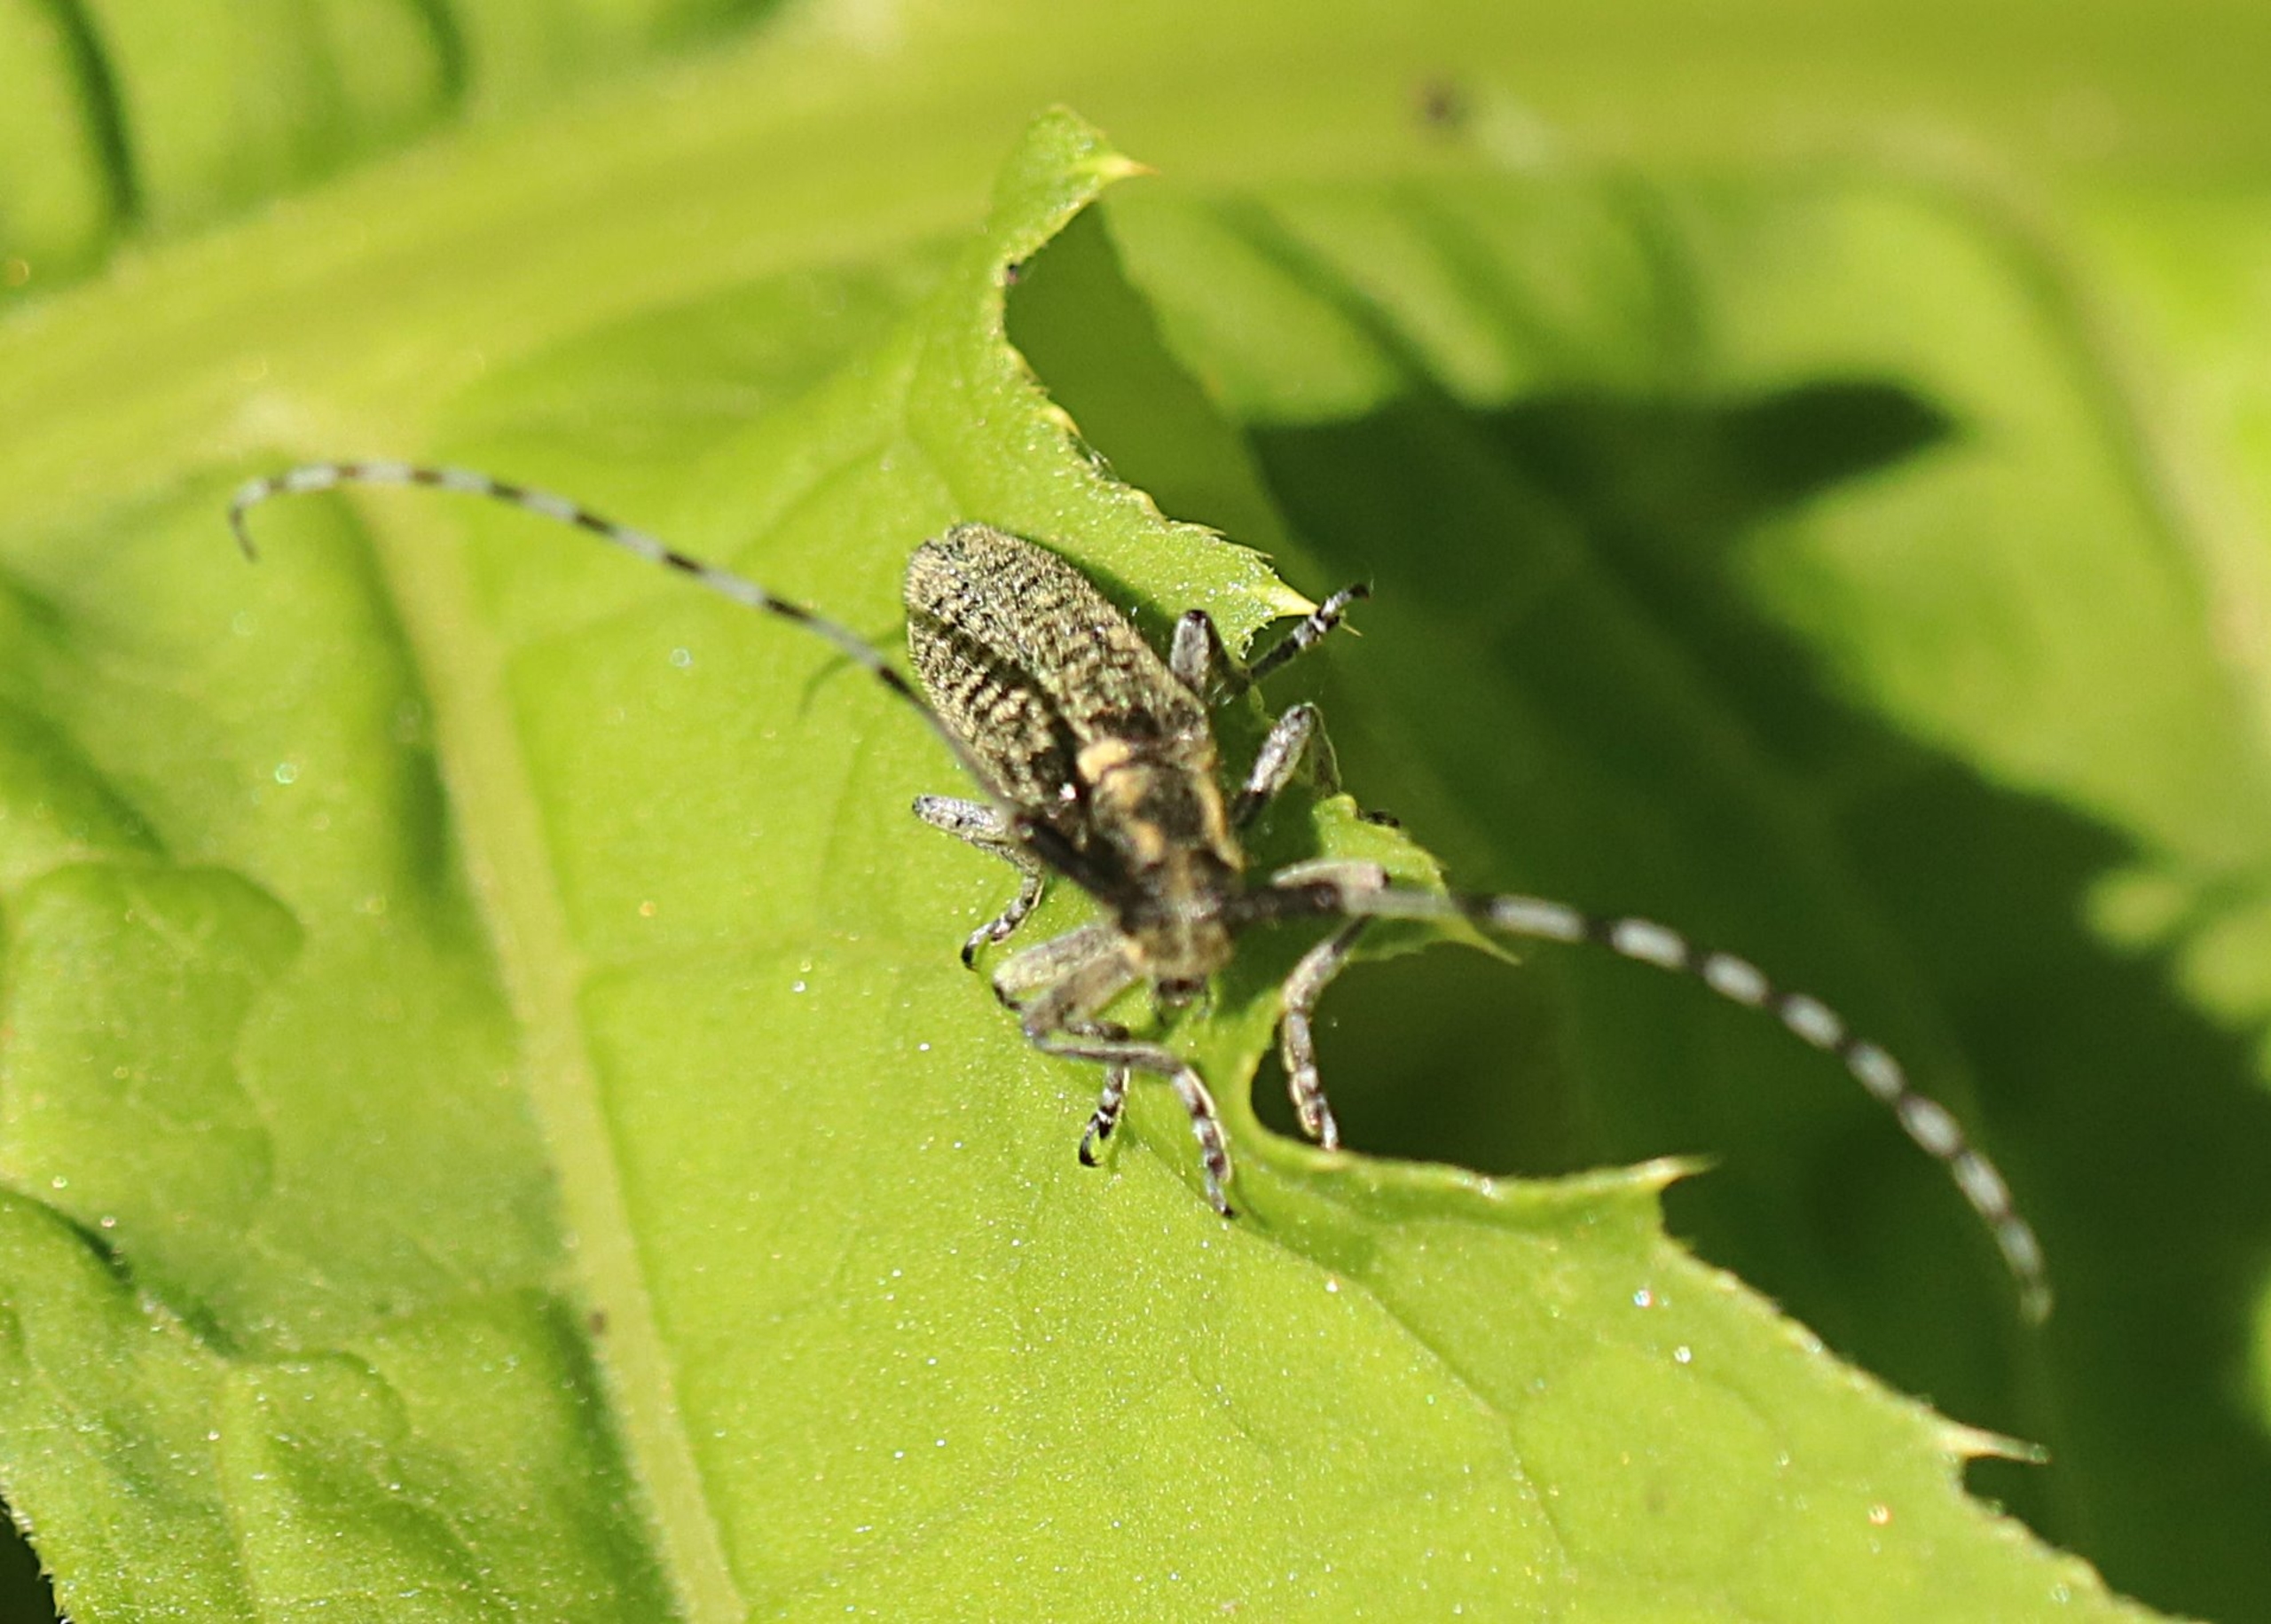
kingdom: Animalia
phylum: Arthropoda
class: Insecta
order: Coleoptera
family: Cerambycidae
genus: Agapanthia
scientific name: Agapanthia villosoviridescens
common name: Tidselbuk
